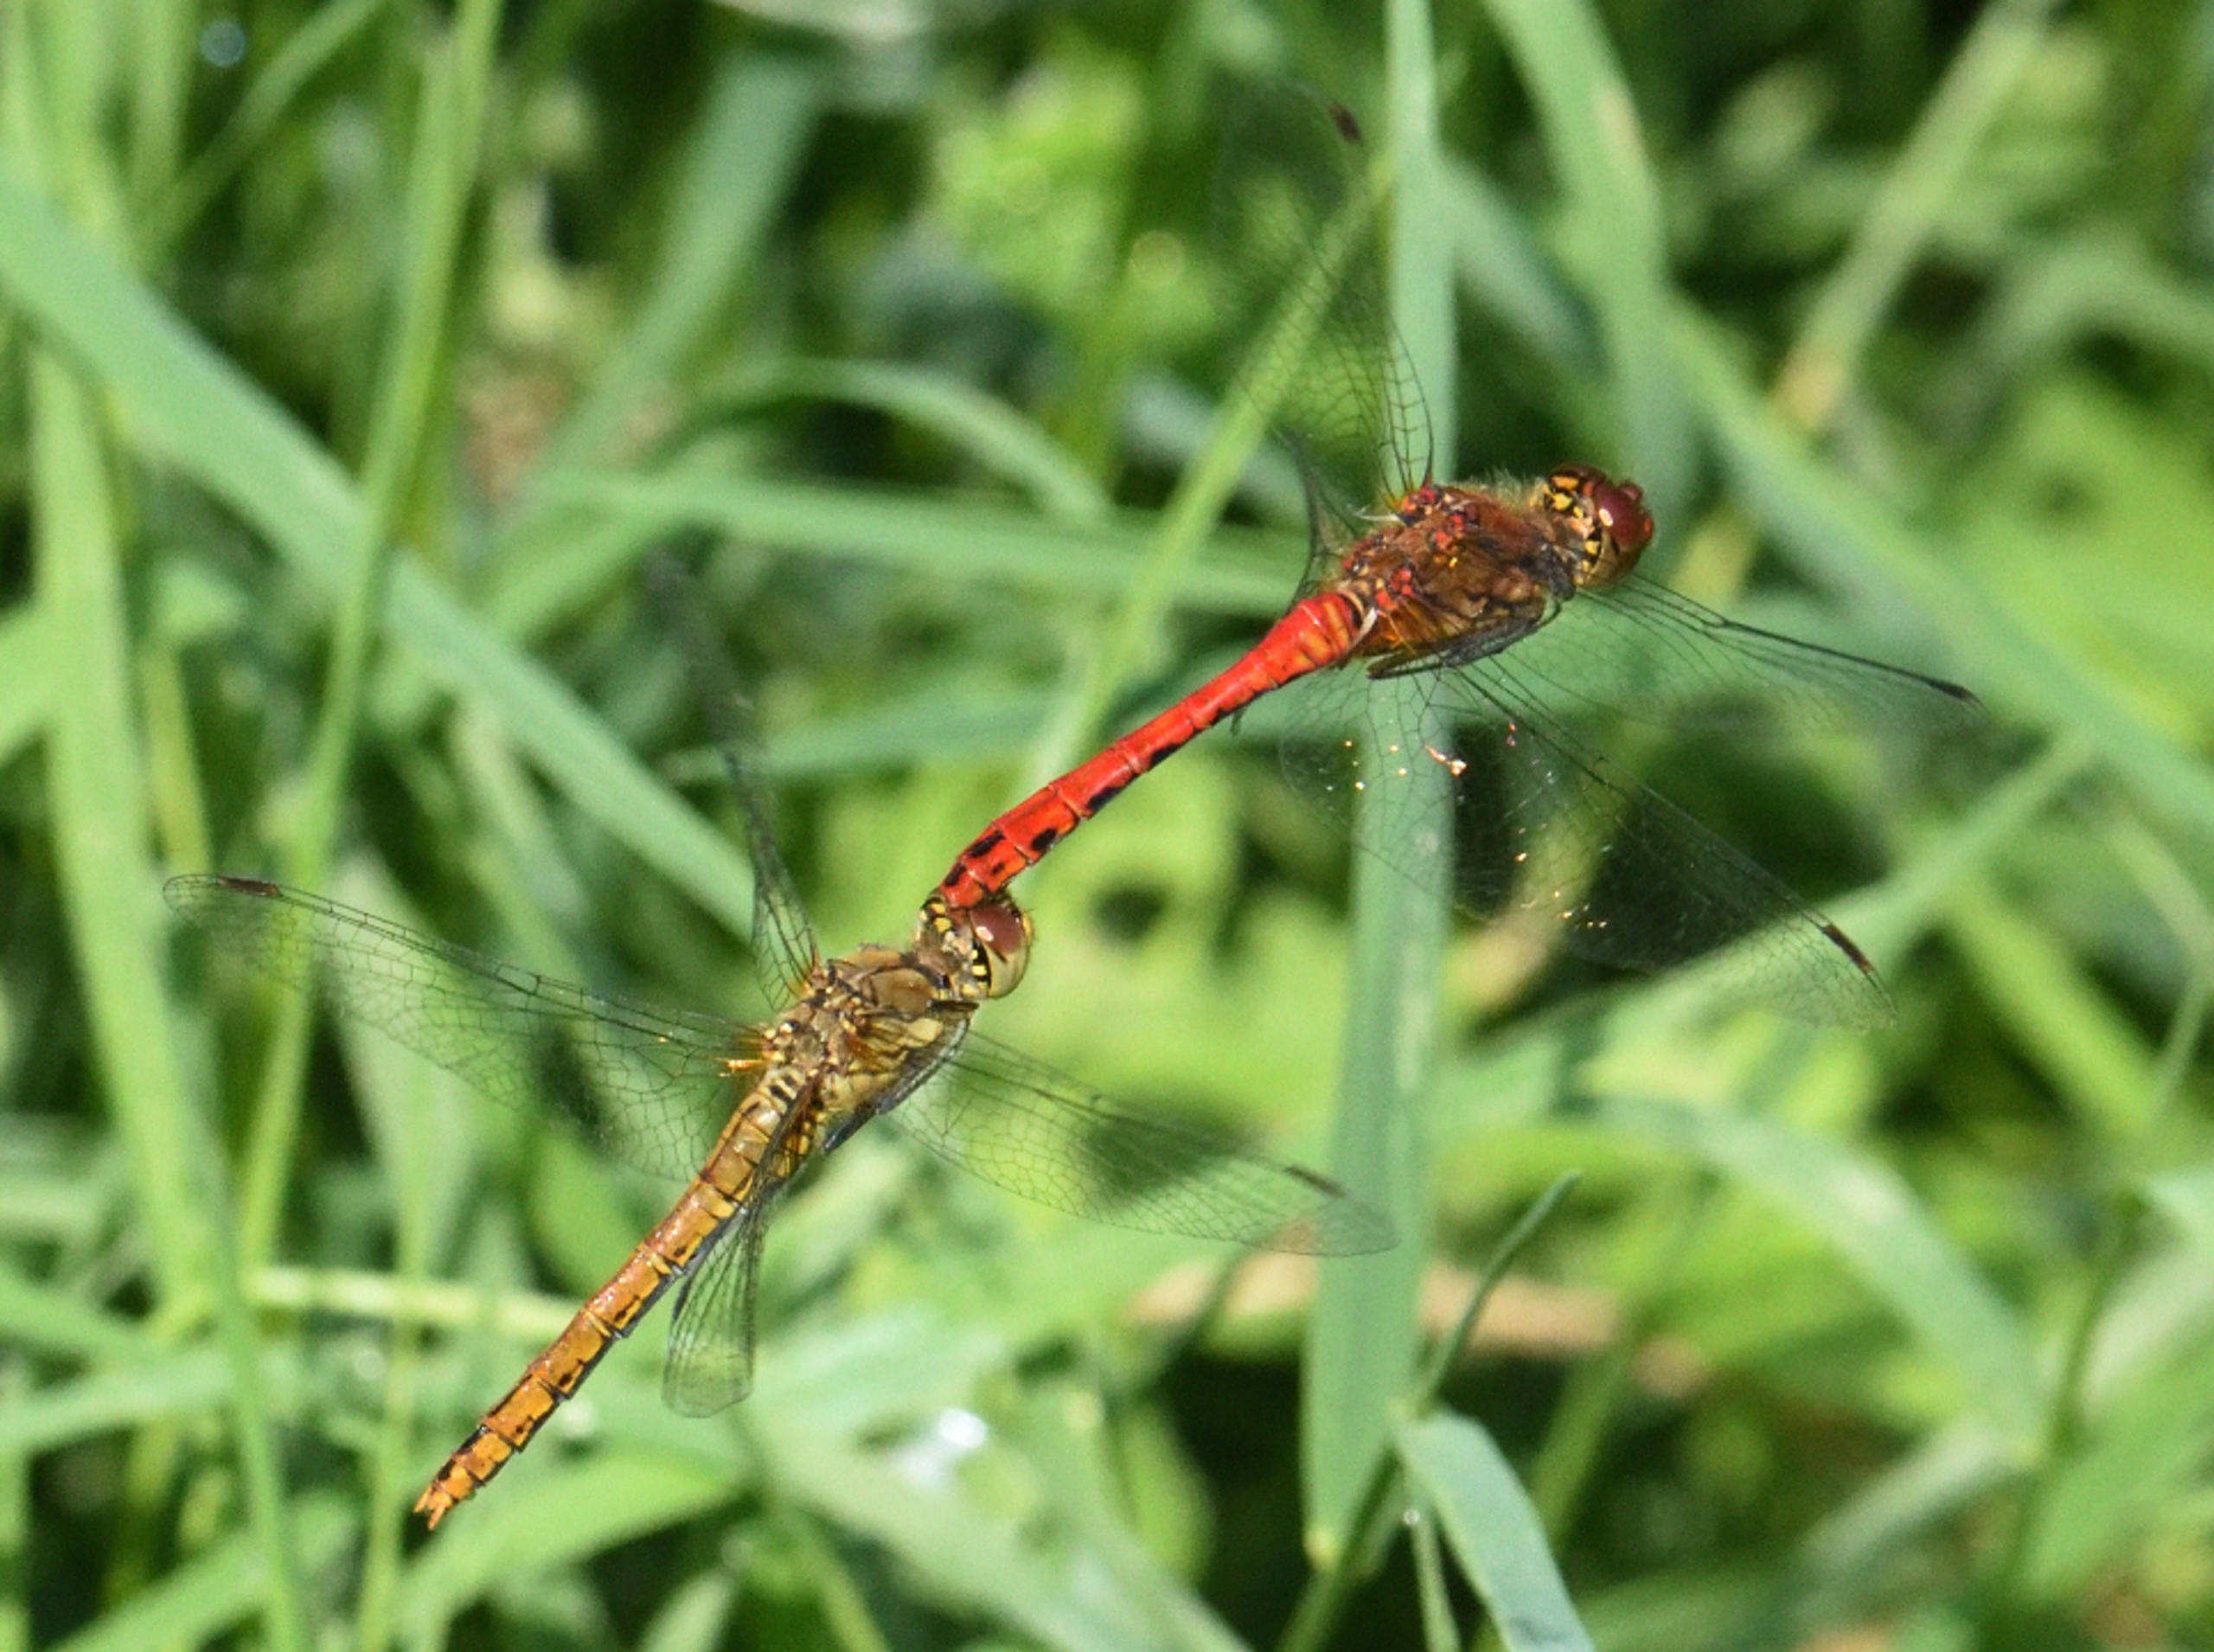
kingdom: Animalia
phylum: Arthropoda
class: Insecta
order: Odonata
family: Libellulidae
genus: Sympetrum
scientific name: Sympetrum sanguineum
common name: Blodrød hedelibel
